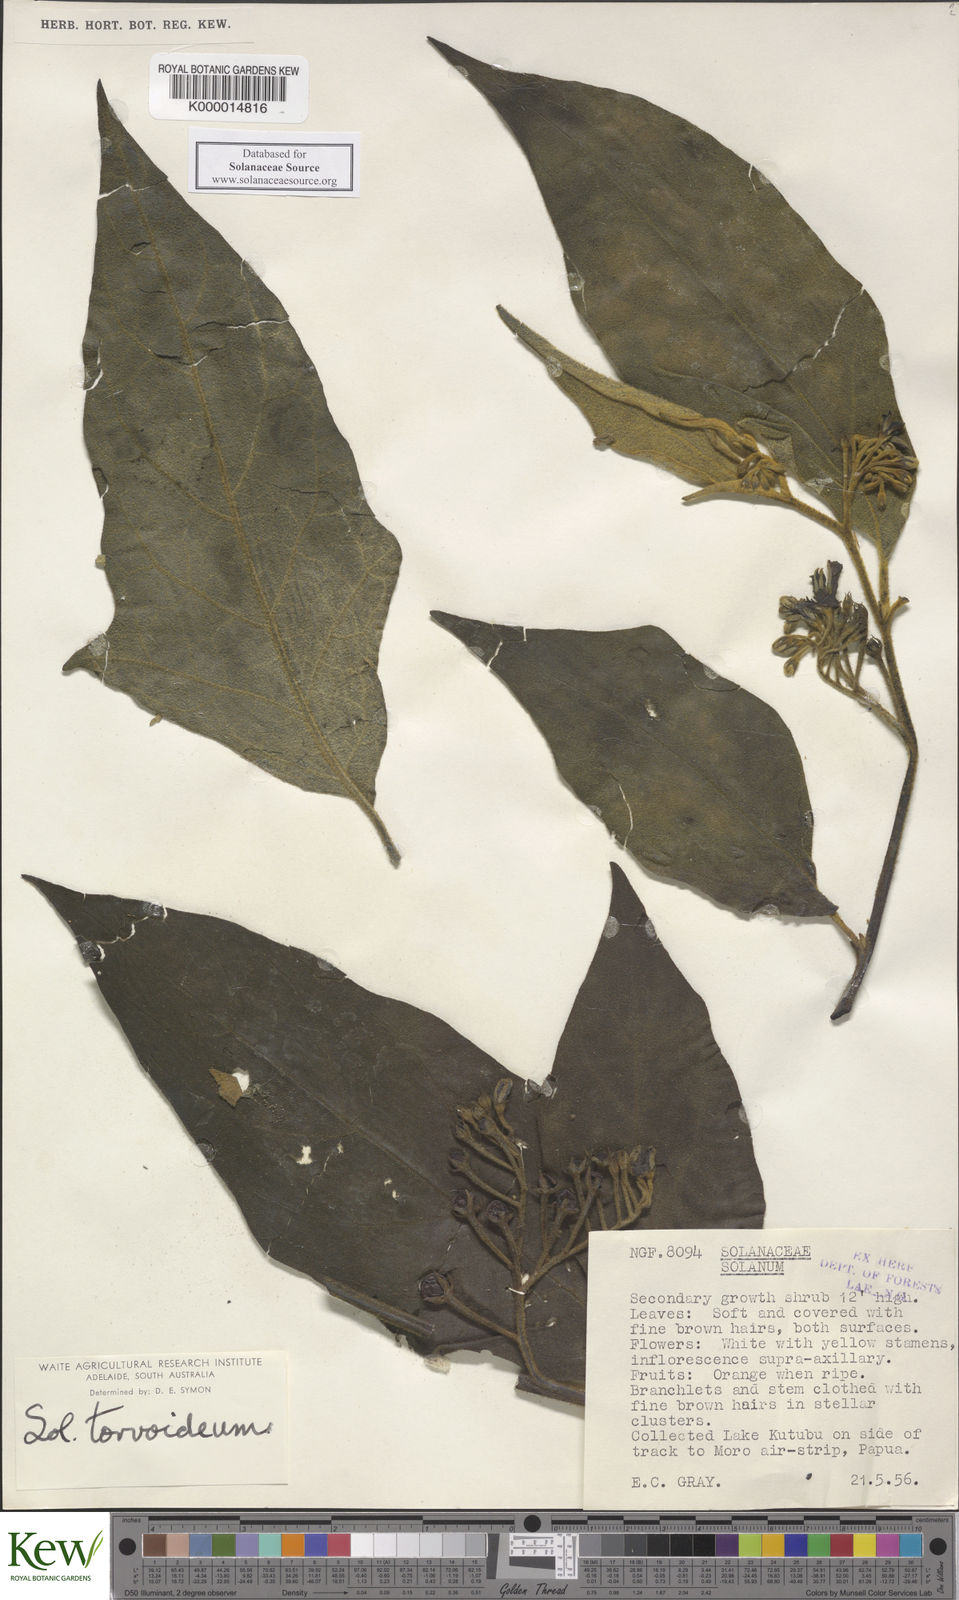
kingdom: Plantae
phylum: Tracheophyta
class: Magnoliopsida
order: Solanales
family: Solanaceae
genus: Solanum
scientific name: Solanum torvoideum
